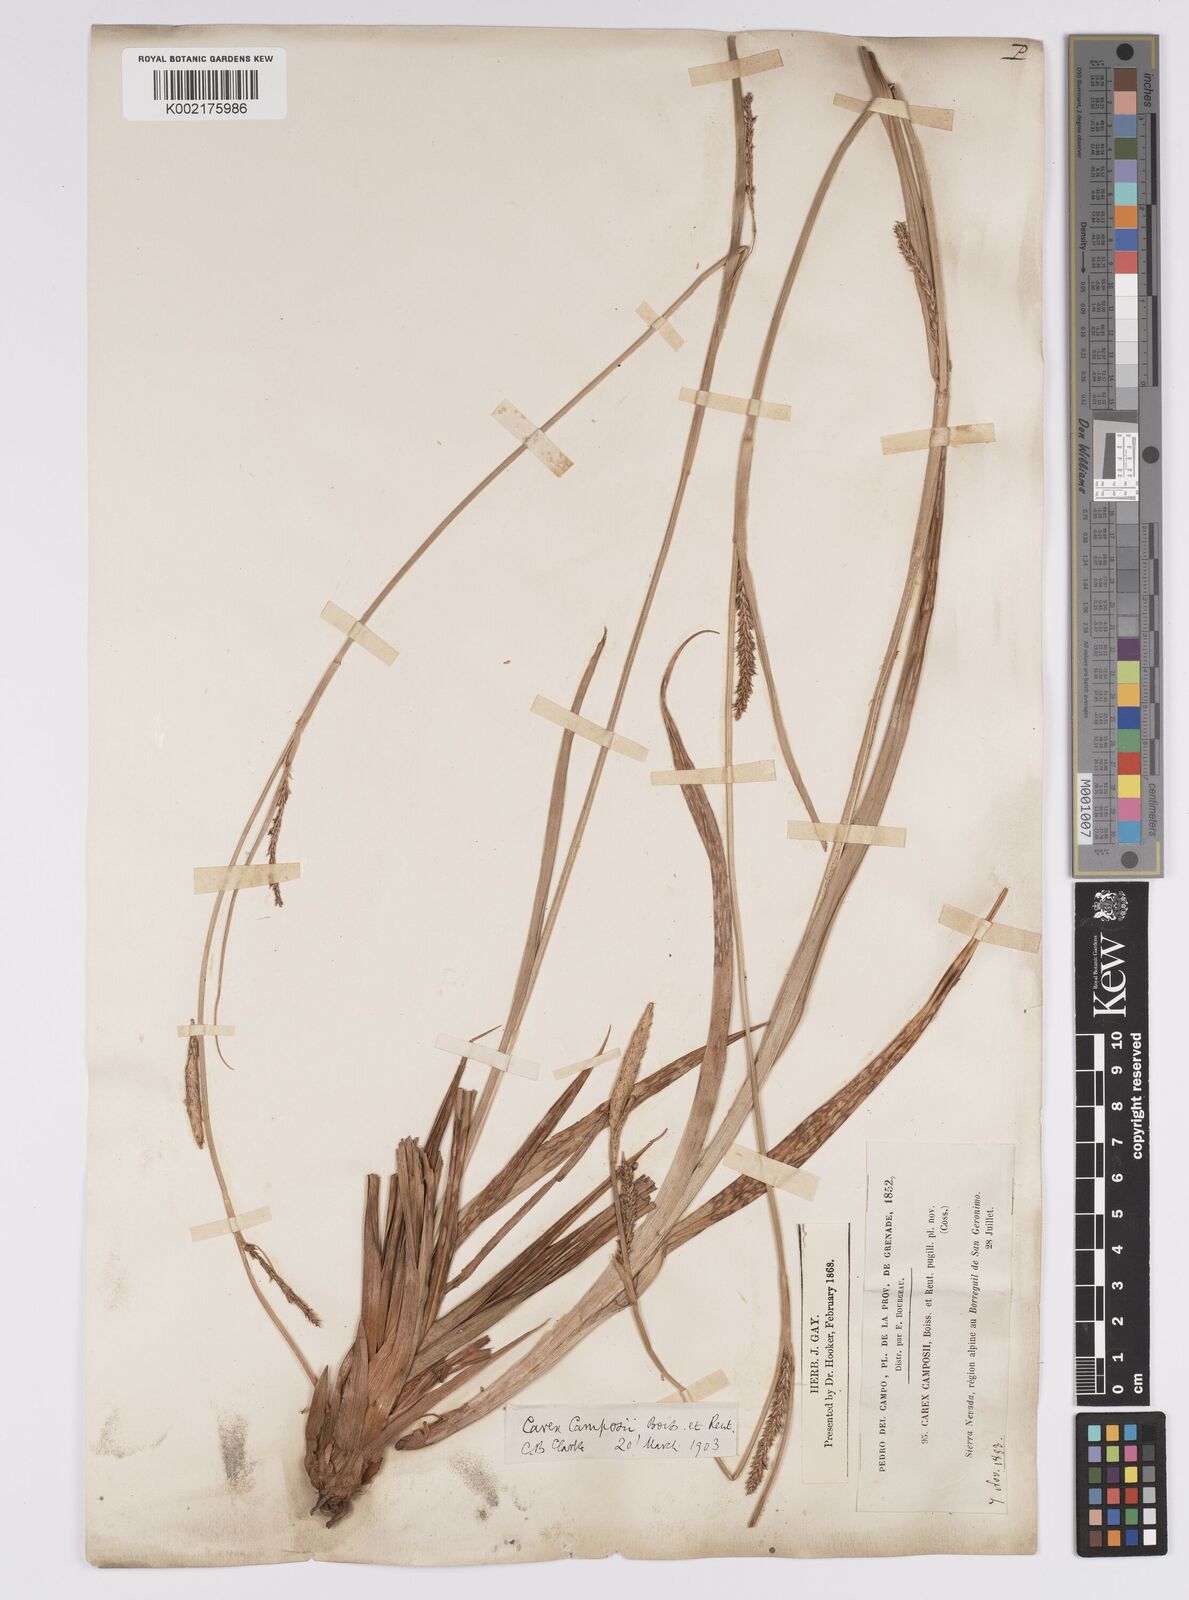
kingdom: Plantae
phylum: Tracheophyta
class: Liliopsida
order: Poales
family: Cyperaceae
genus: Carex
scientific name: Carex camposii
